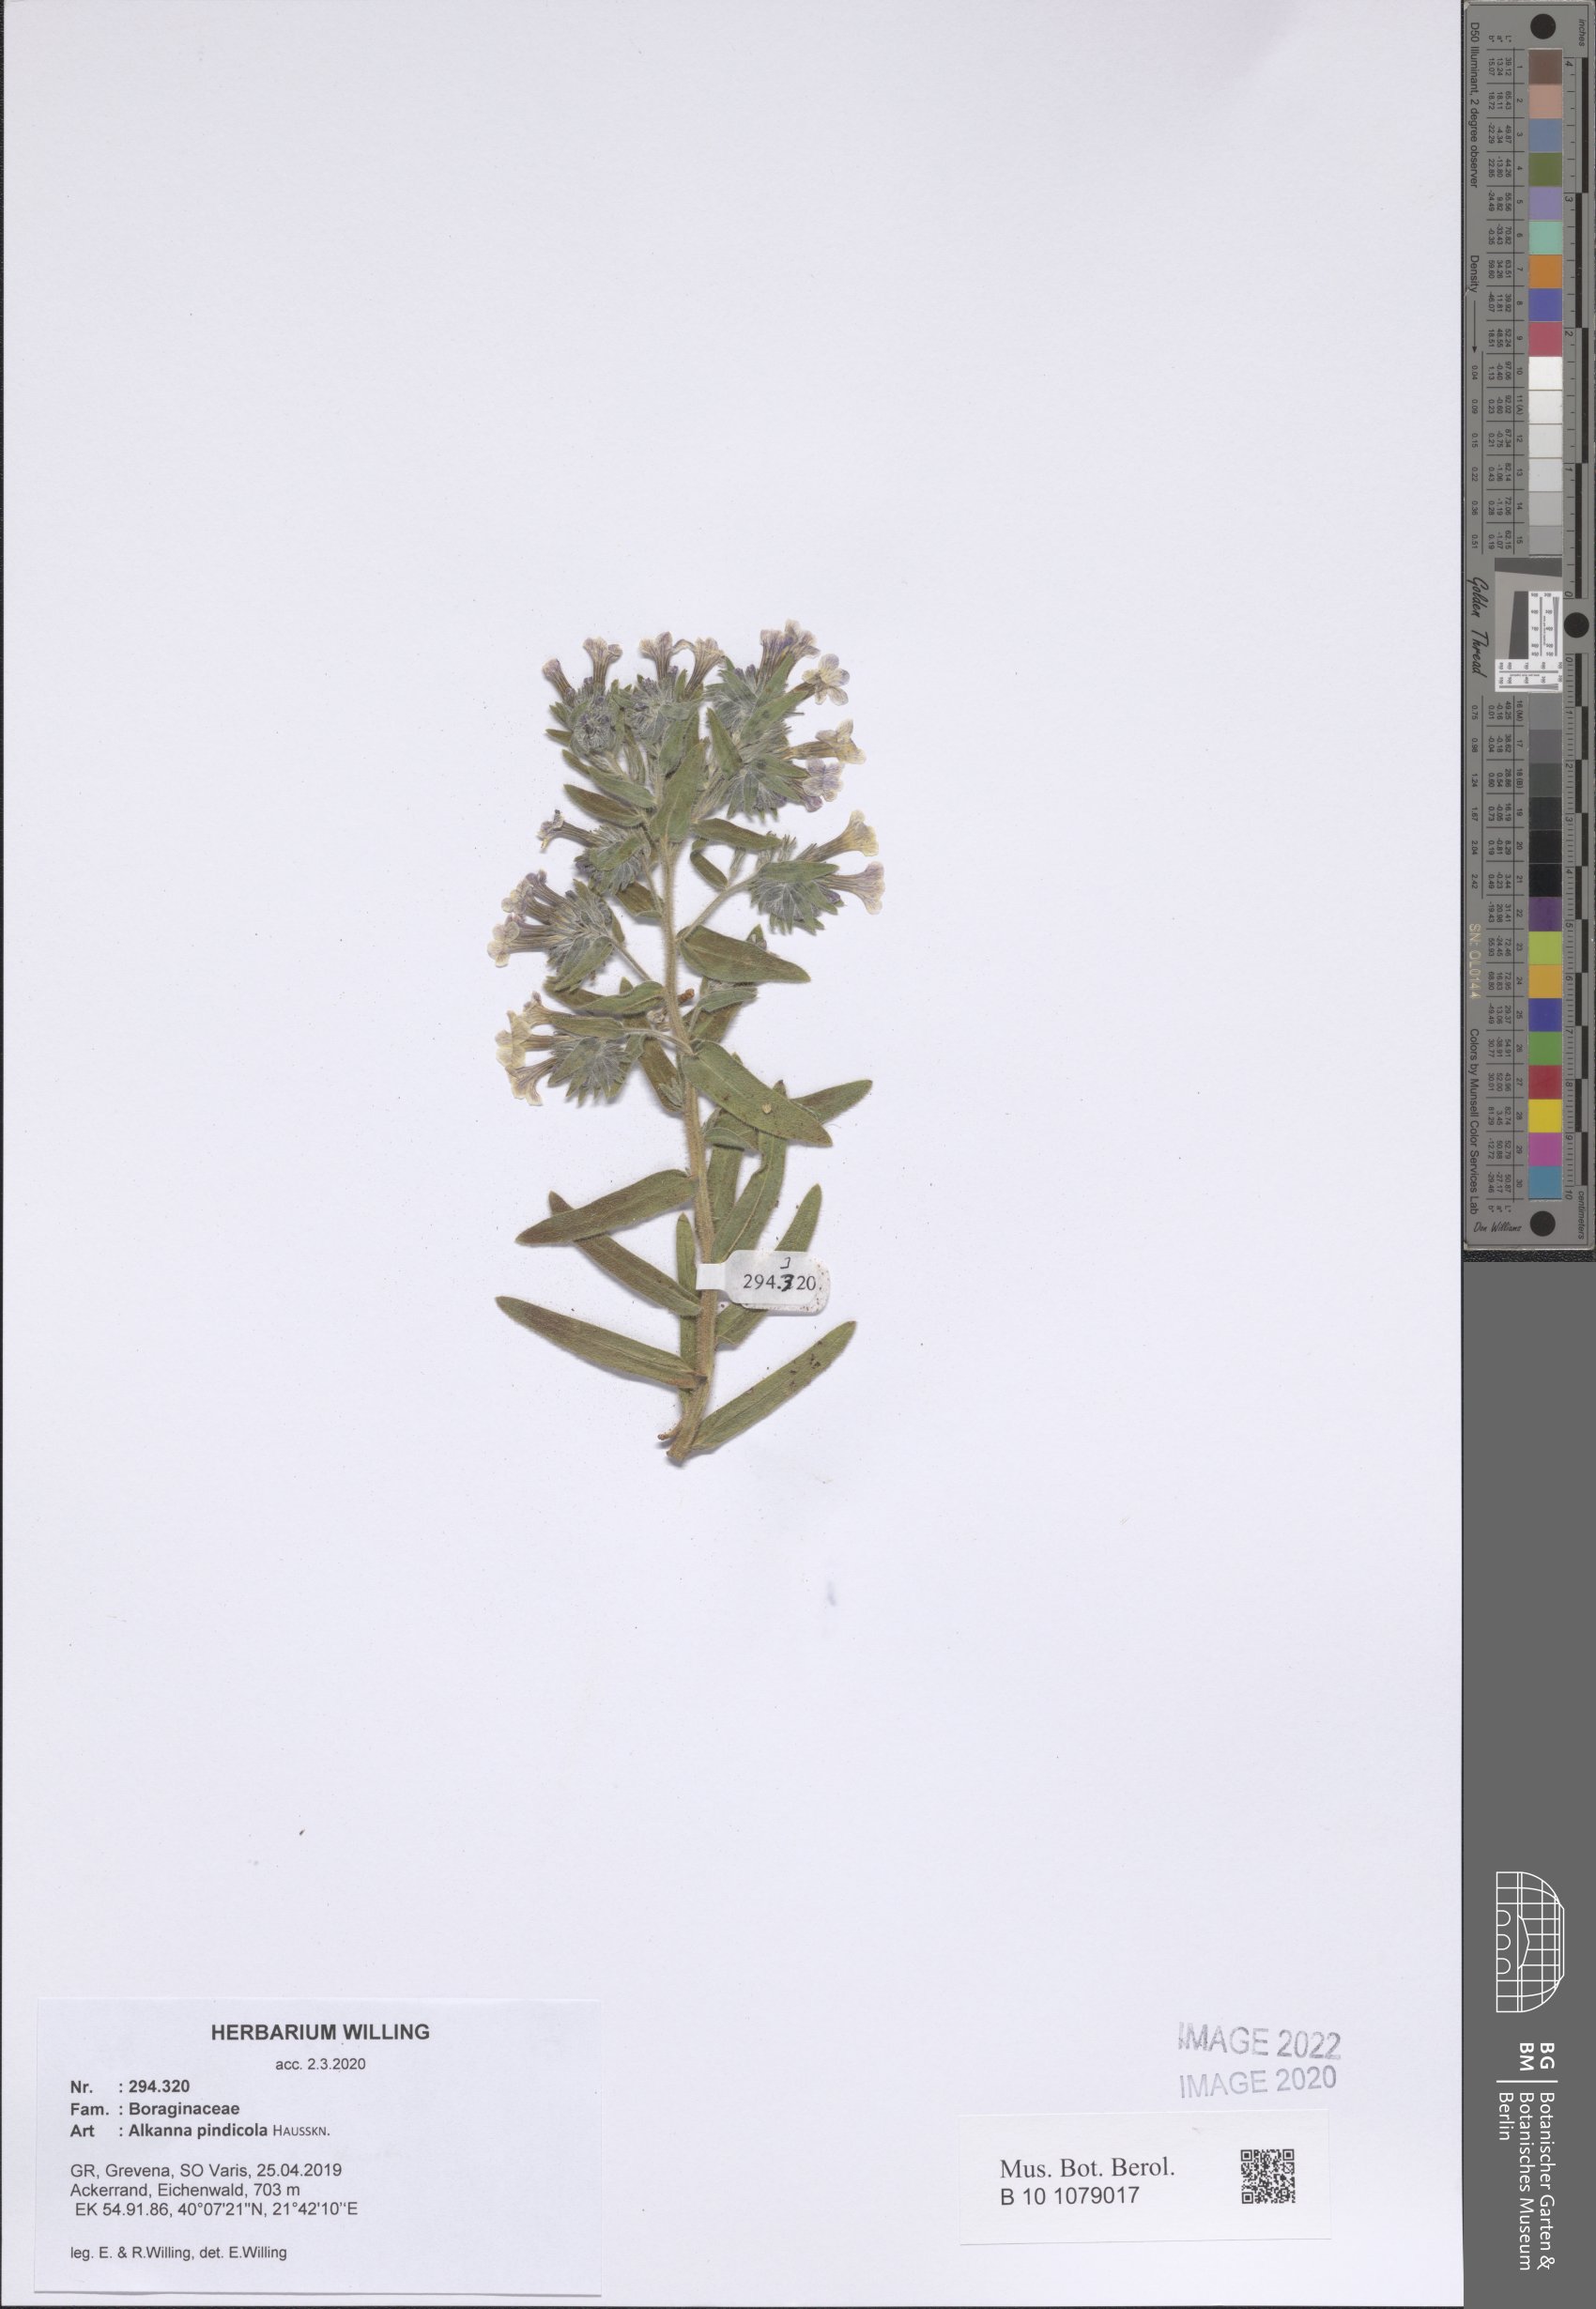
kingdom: Plantae
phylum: Tracheophyta
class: Magnoliopsida
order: Boraginales
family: Boraginaceae
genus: Alkanna
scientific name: Alkanna pindicola
